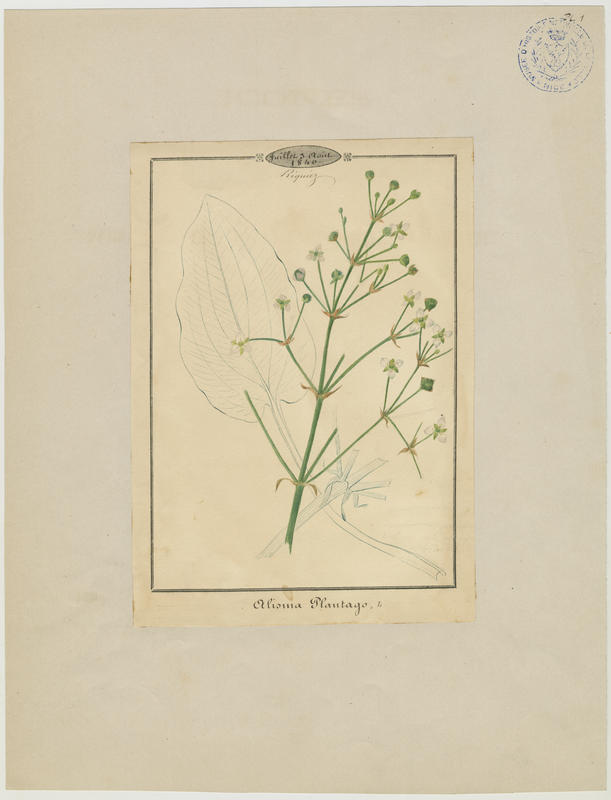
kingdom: Plantae
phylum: Tracheophyta
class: Liliopsida
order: Alismatales
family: Alismataceae
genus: Alisma
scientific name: Alisma plantago-aquatica
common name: Water-plantain
